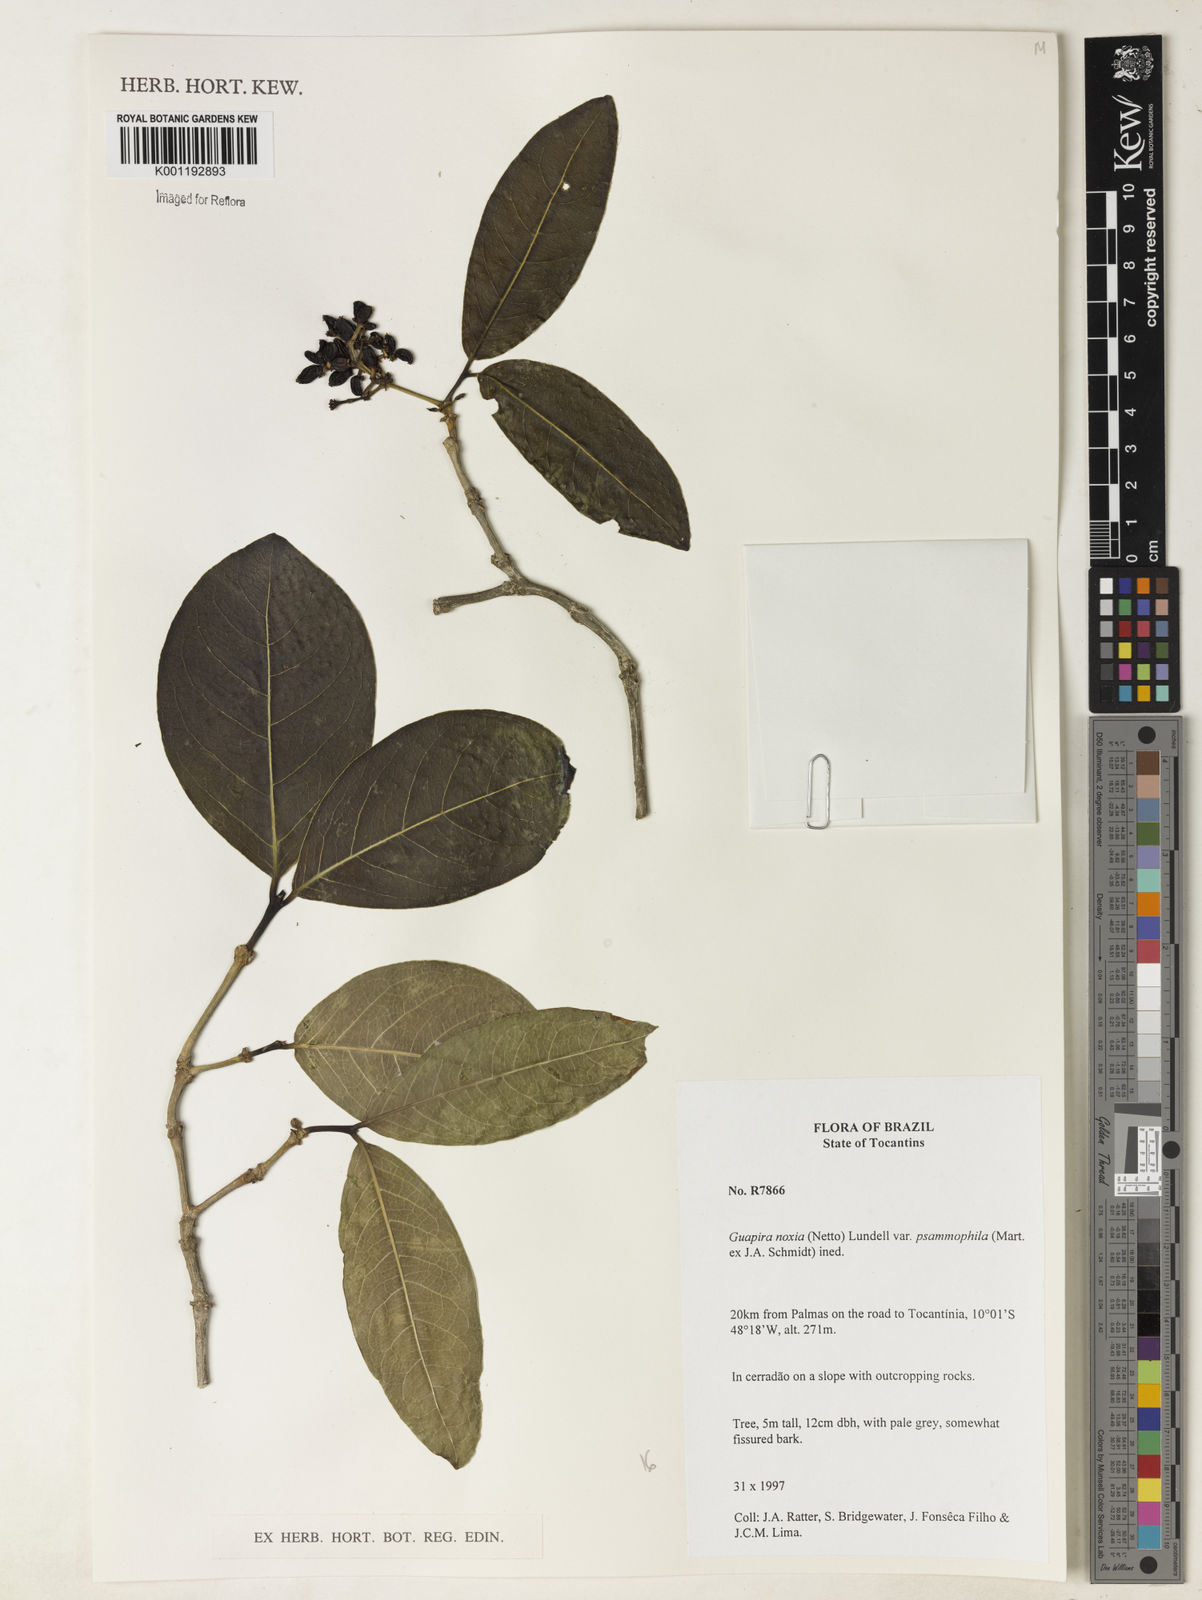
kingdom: Plantae
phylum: Tracheophyta
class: Magnoliopsida
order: Caryophyllales
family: Nyctaginaceae
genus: Guapira
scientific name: Guapira noxia
